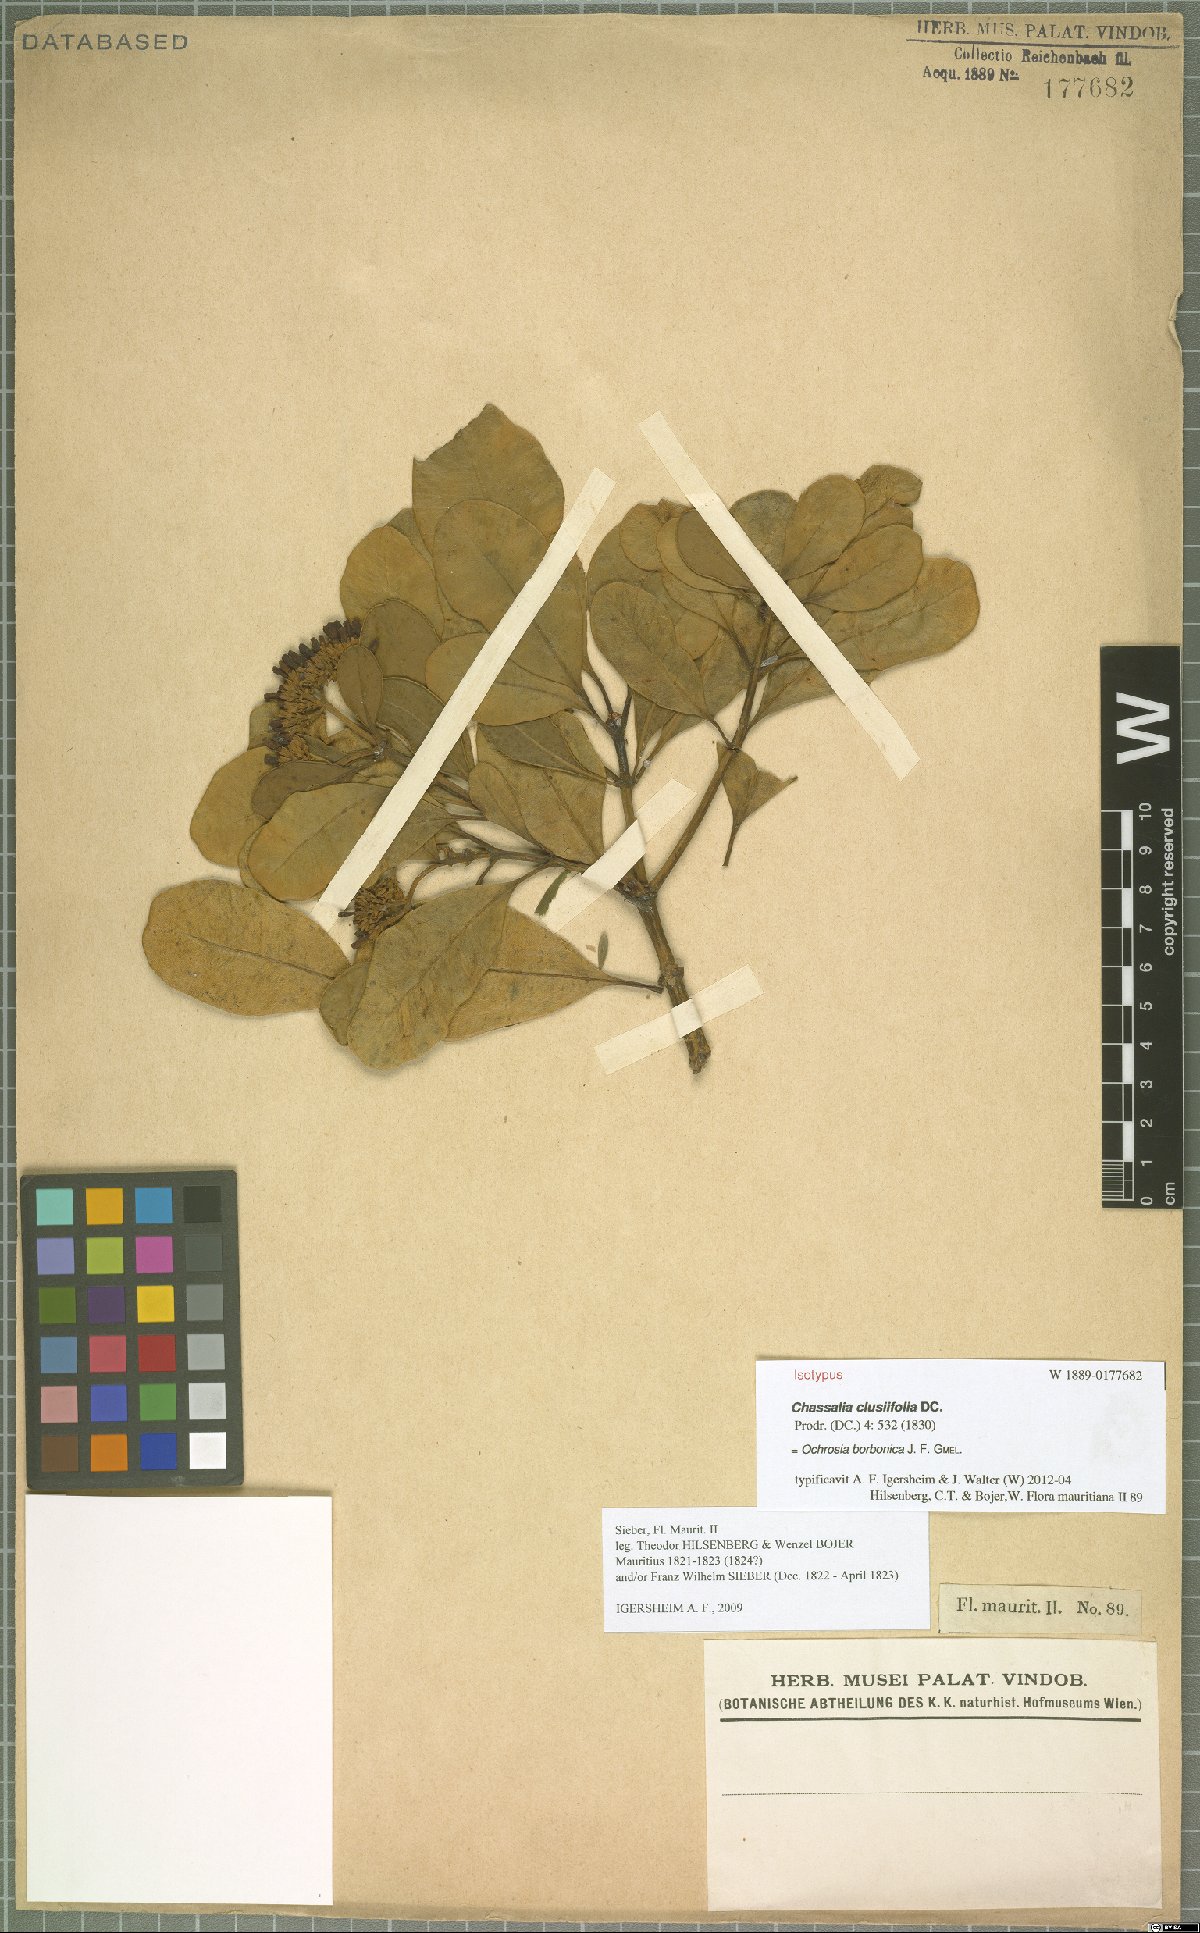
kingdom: Plantae
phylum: Tracheophyta
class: Magnoliopsida
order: Gentianales
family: Apocynaceae
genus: Ochrosia
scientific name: Ochrosia borbonica
